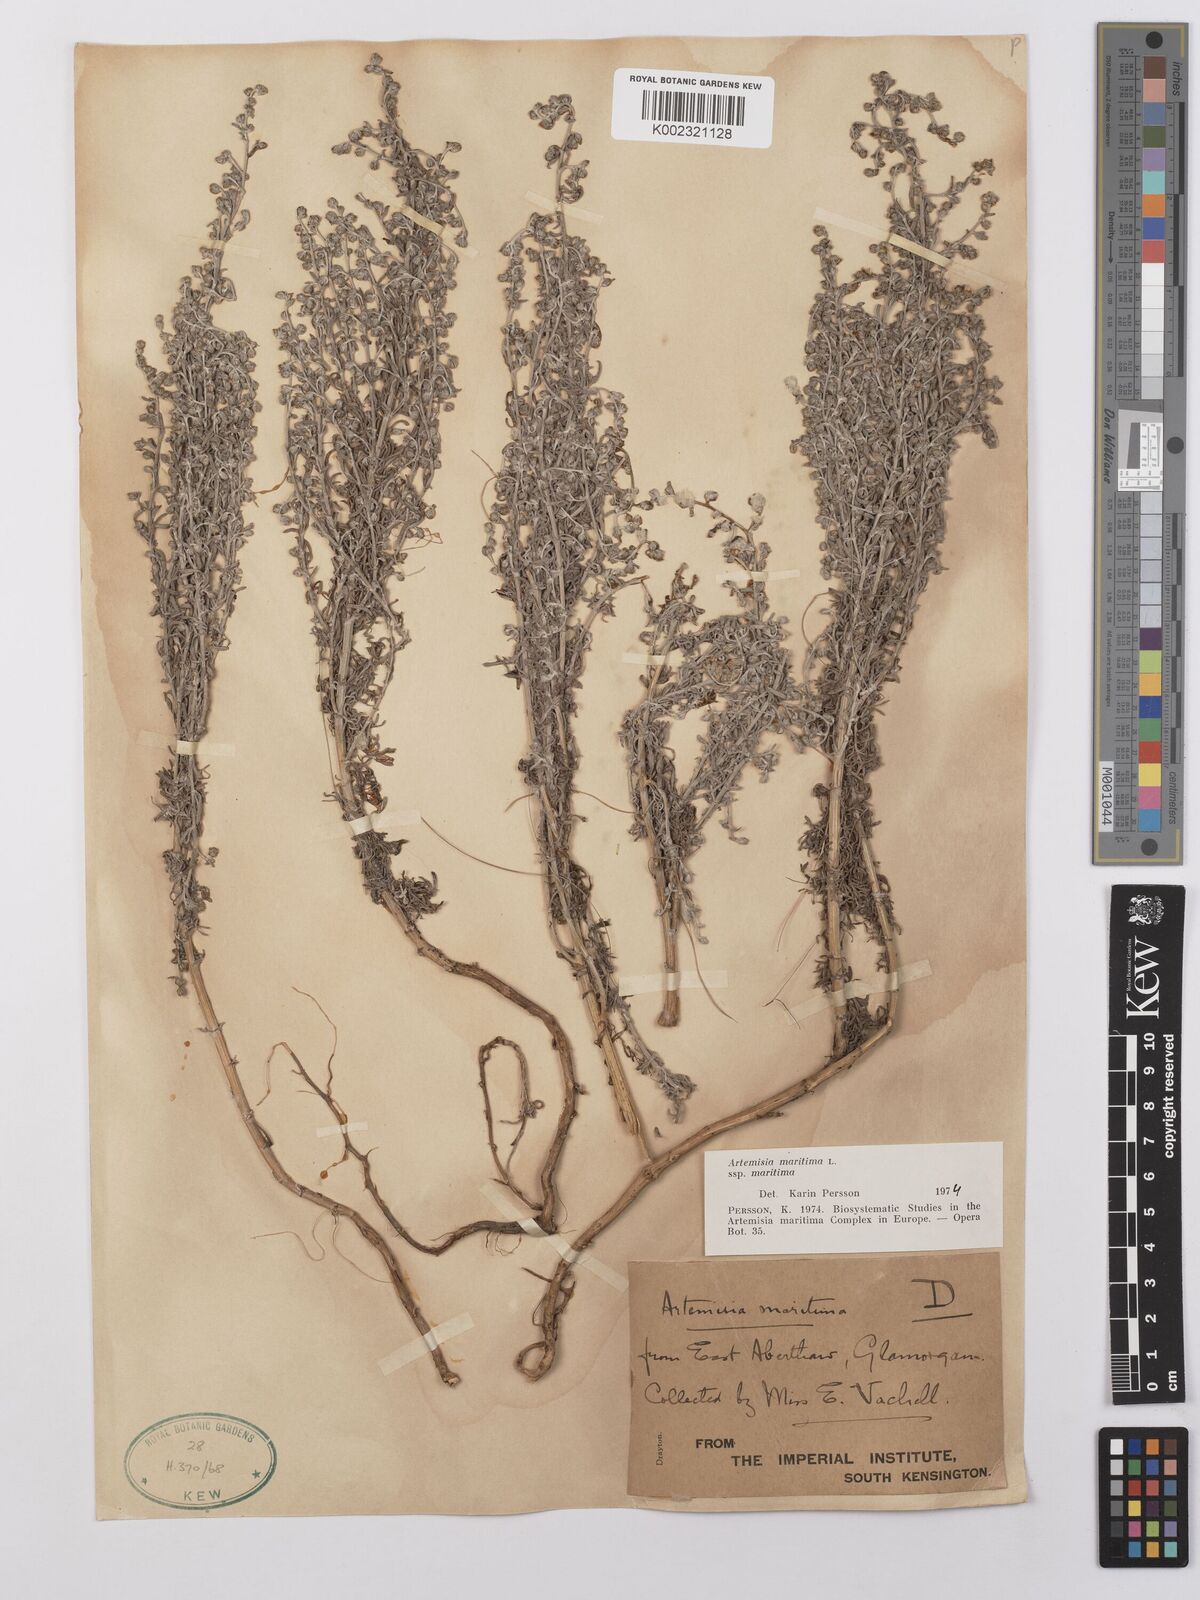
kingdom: Plantae
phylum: Tracheophyta
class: Magnoliopsida
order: Asterales
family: Asteraceae
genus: Artemisia
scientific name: Artemisia maritima
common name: Wormseed
